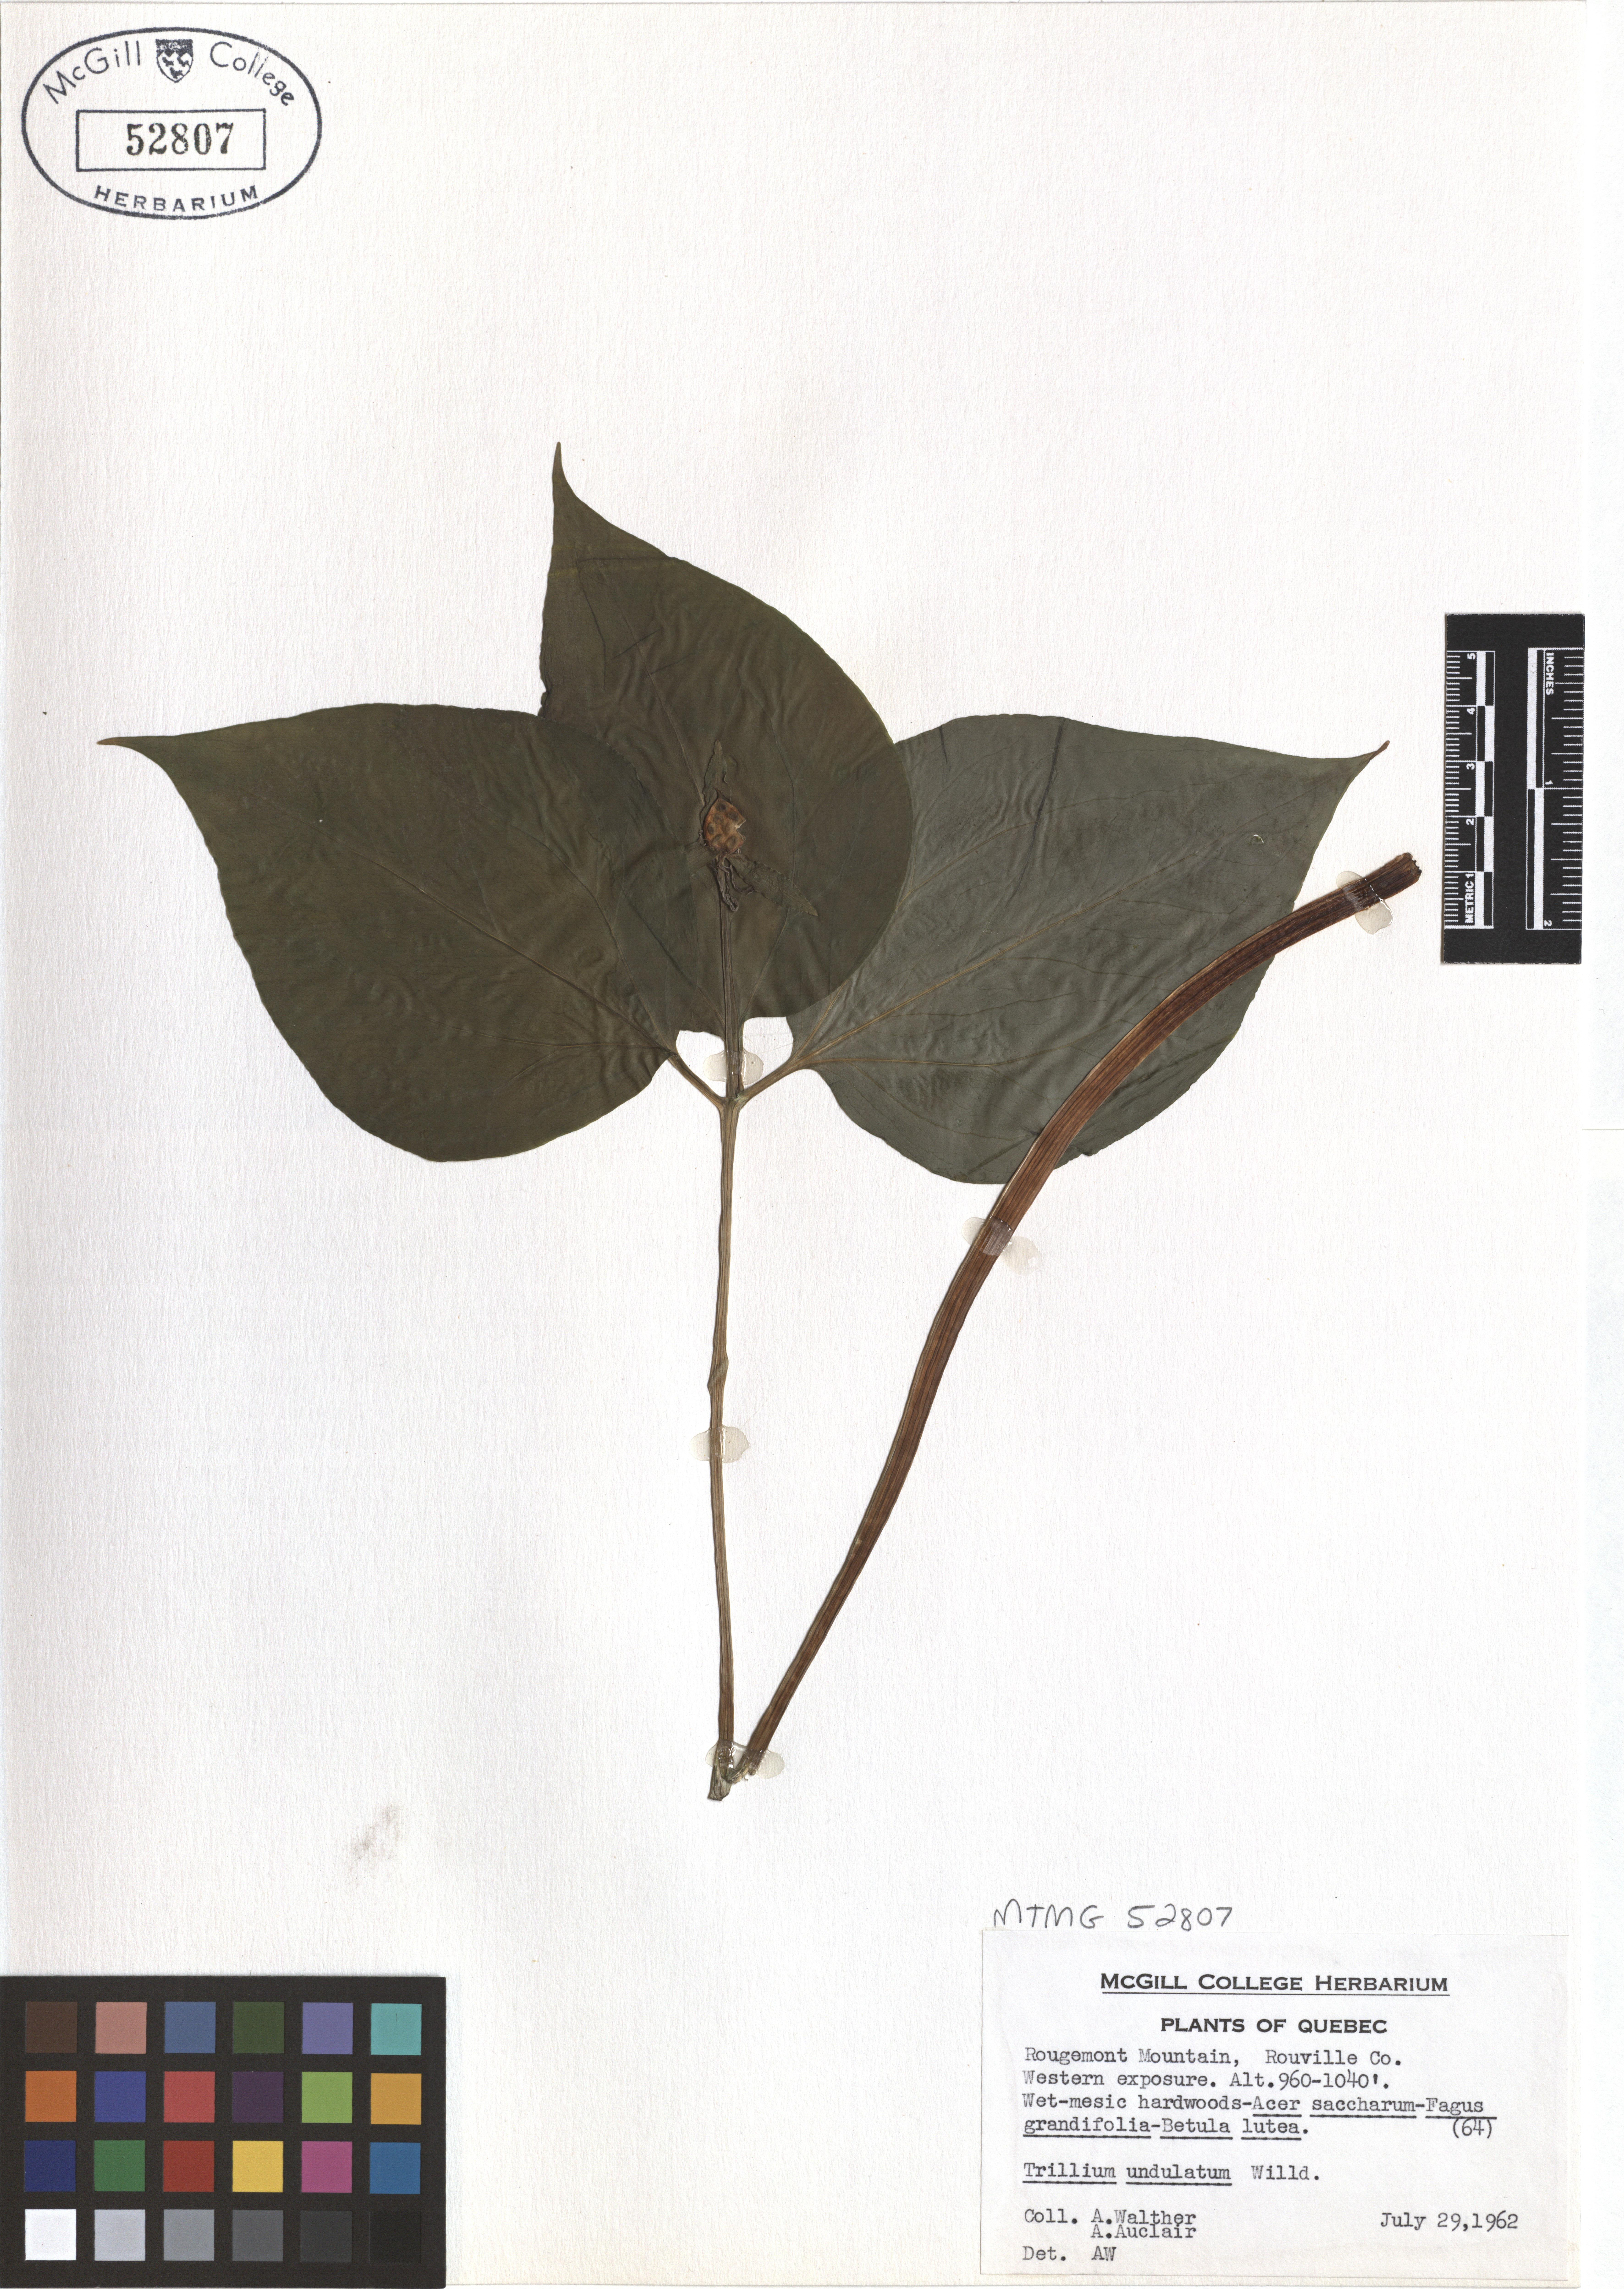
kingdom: Plantae
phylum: Tracheophyta
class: Liliopsida
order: Liliales
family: Melanthiaceae
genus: Trillium
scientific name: Trillium undulatum
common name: Paint trillium
